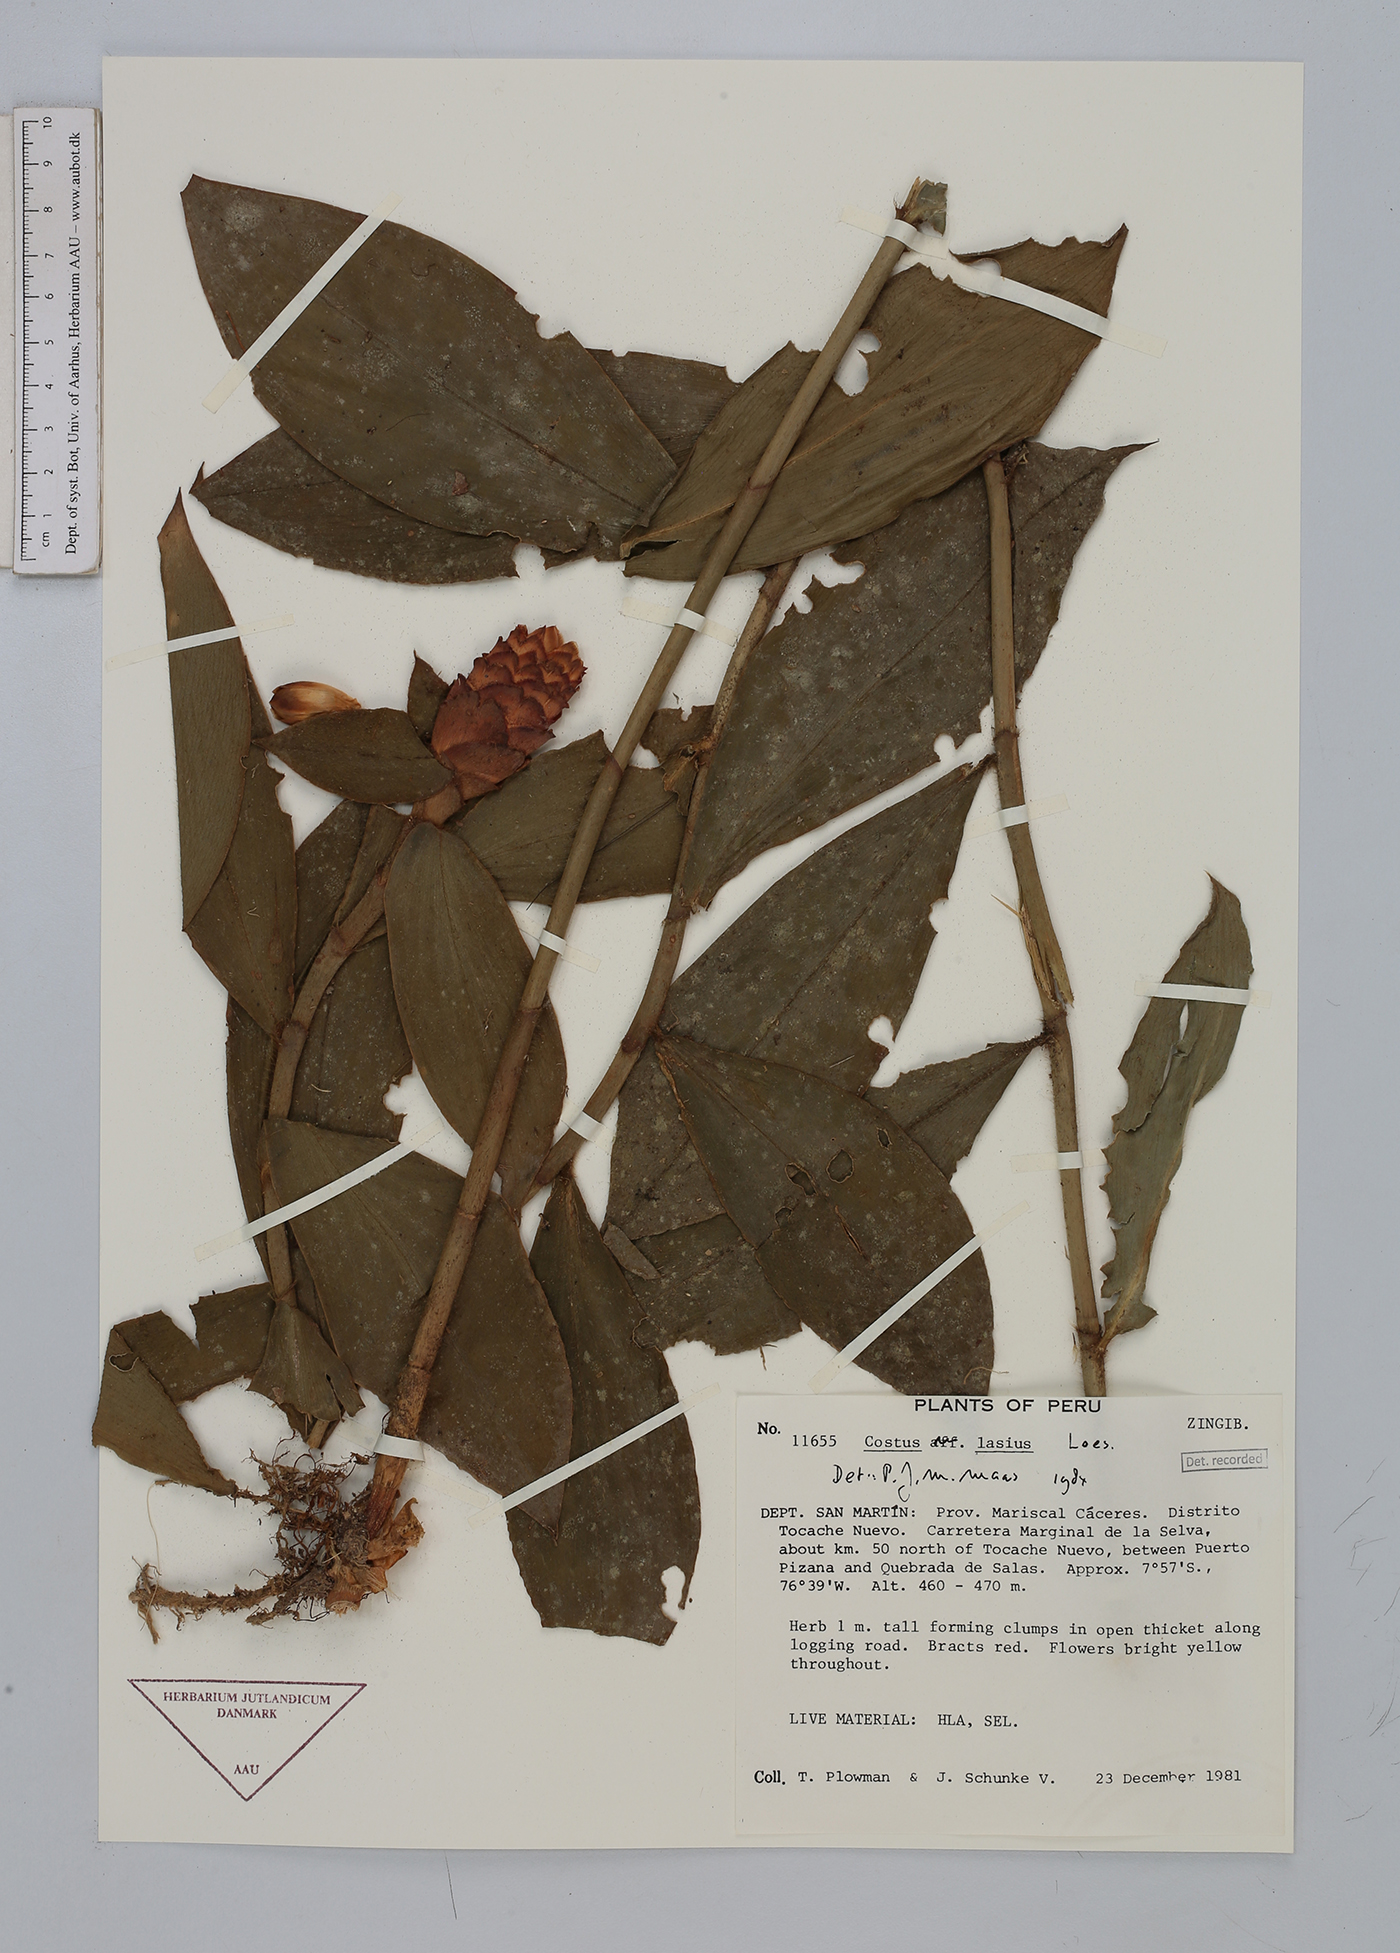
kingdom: Plantae
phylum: Tracheophyta
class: Liliopsida
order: Zingiberales
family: Costaceae
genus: Costus
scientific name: Costus lasius
